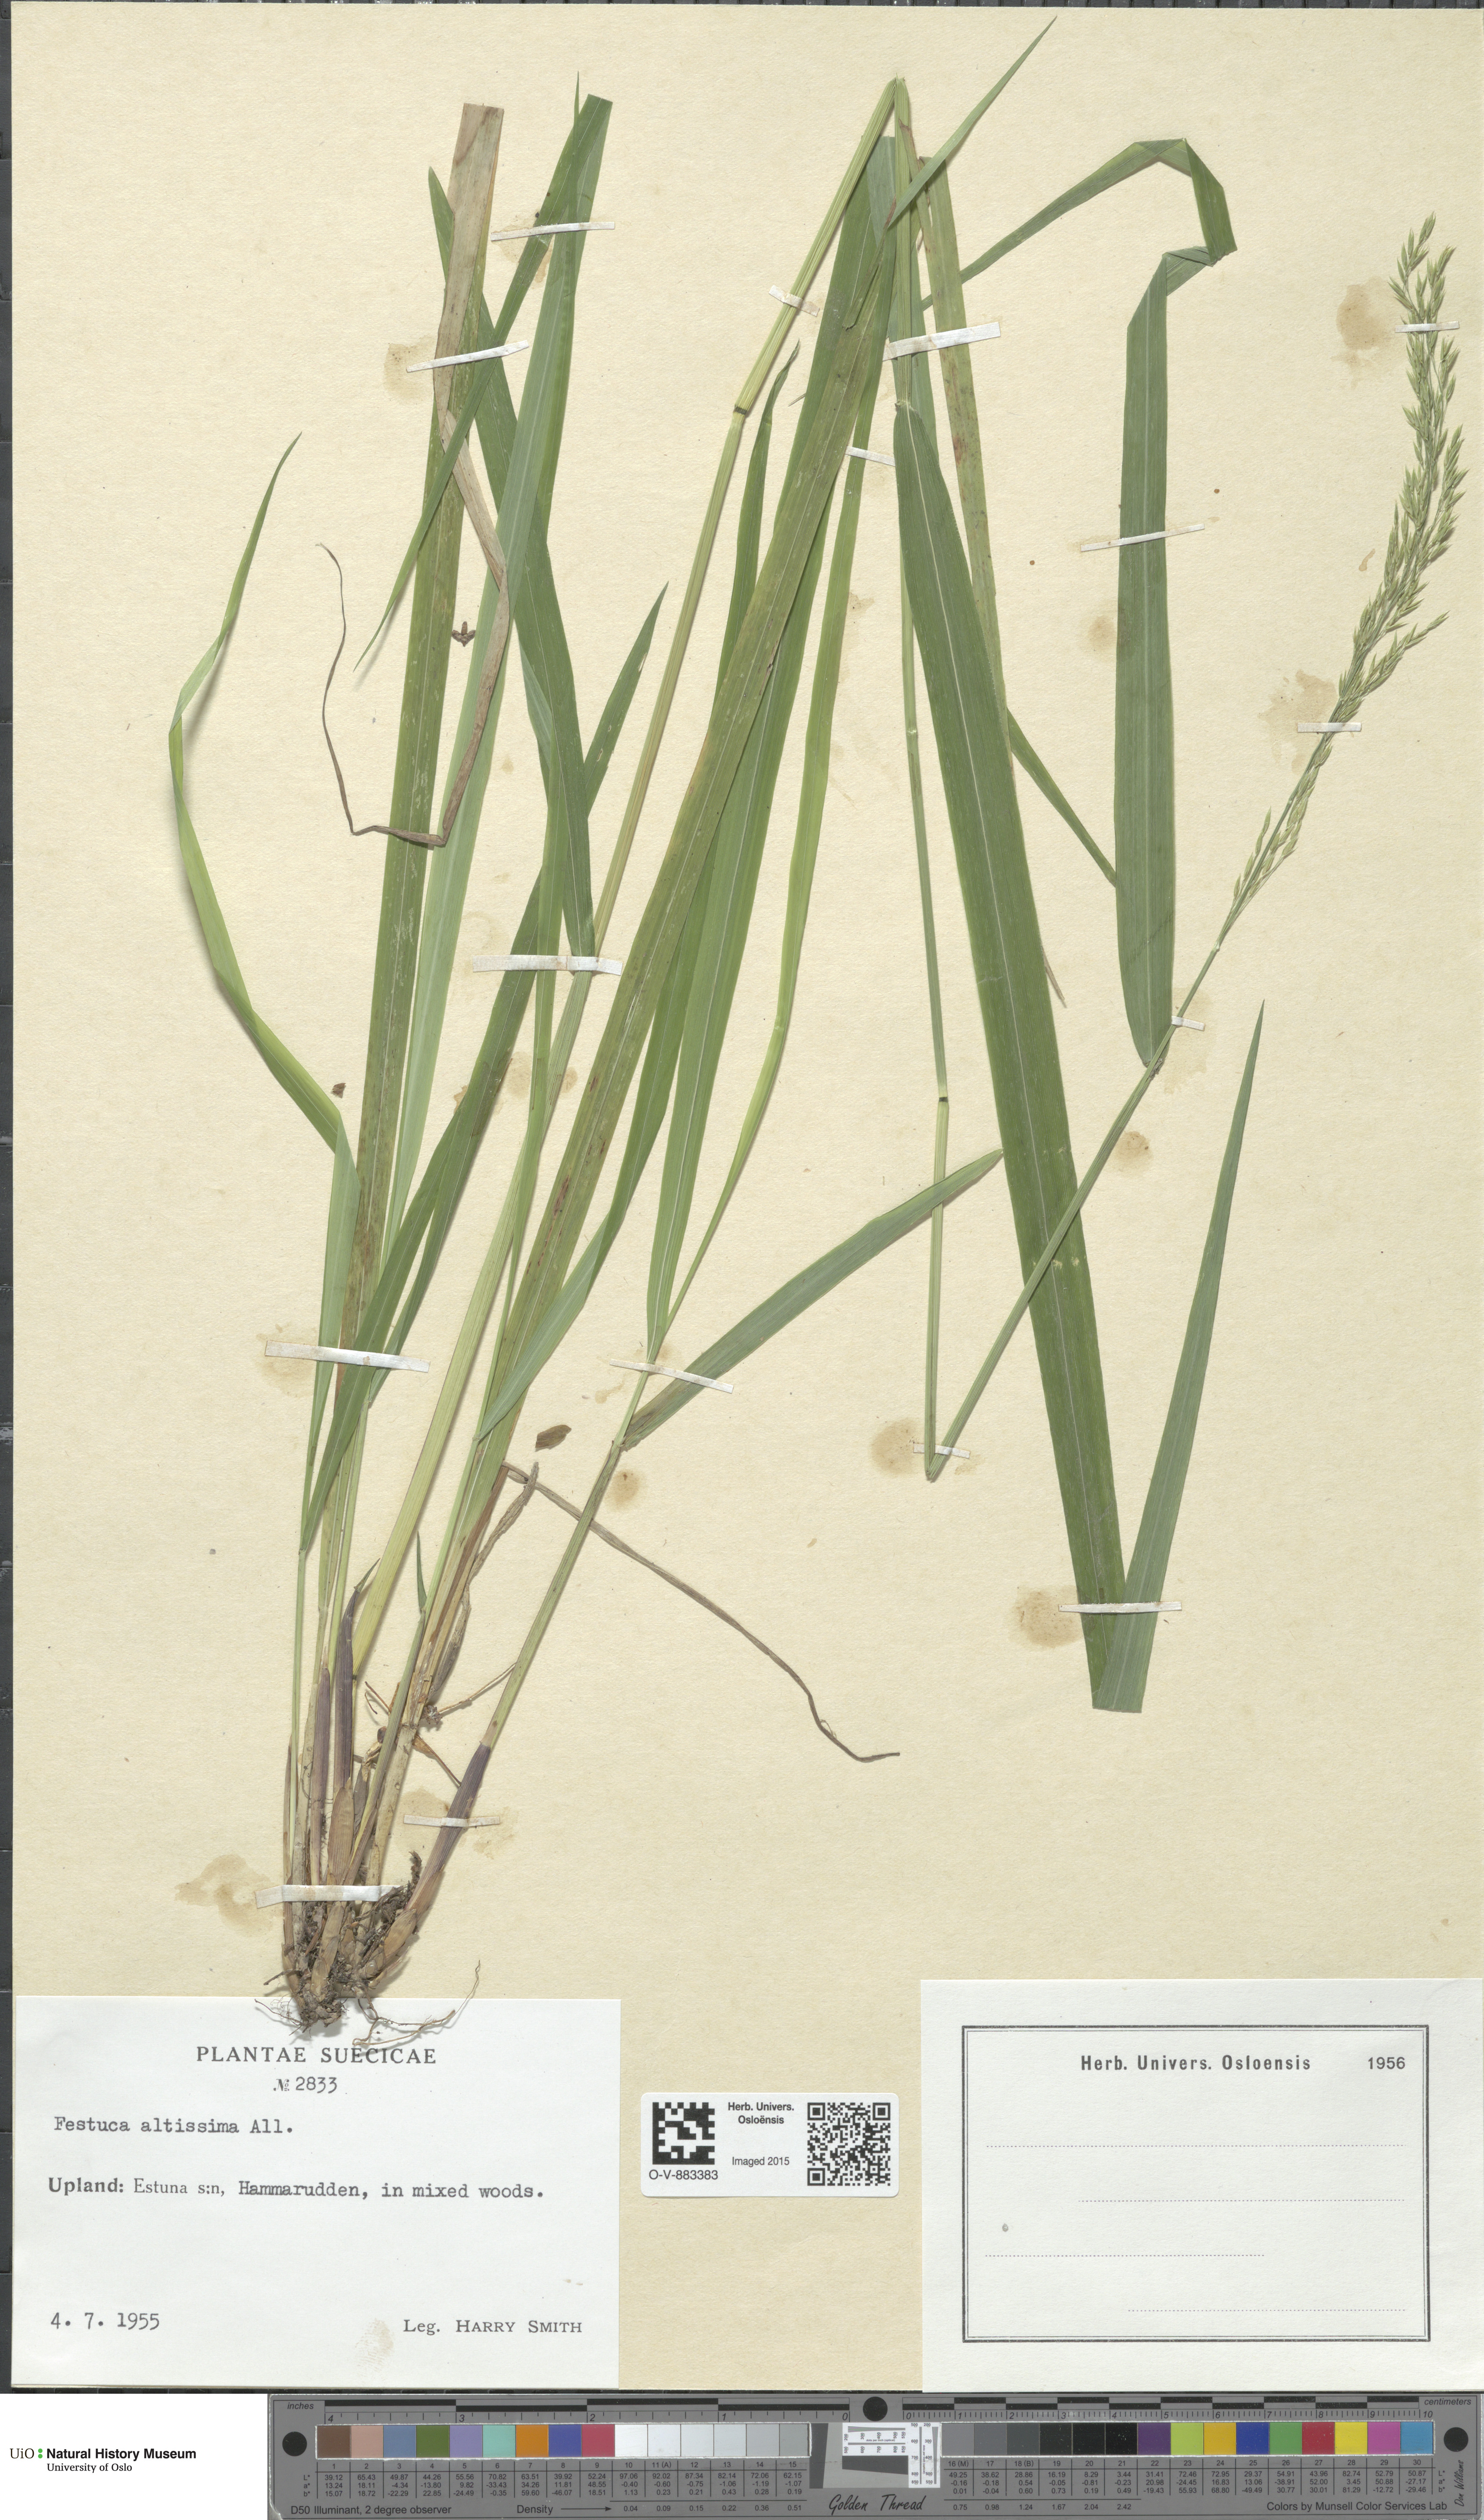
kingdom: Plantae
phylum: Tracheophyta
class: Liliopsida
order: Poales
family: Poaceae
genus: Festuca
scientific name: Festuca altissima
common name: Wood fescue
